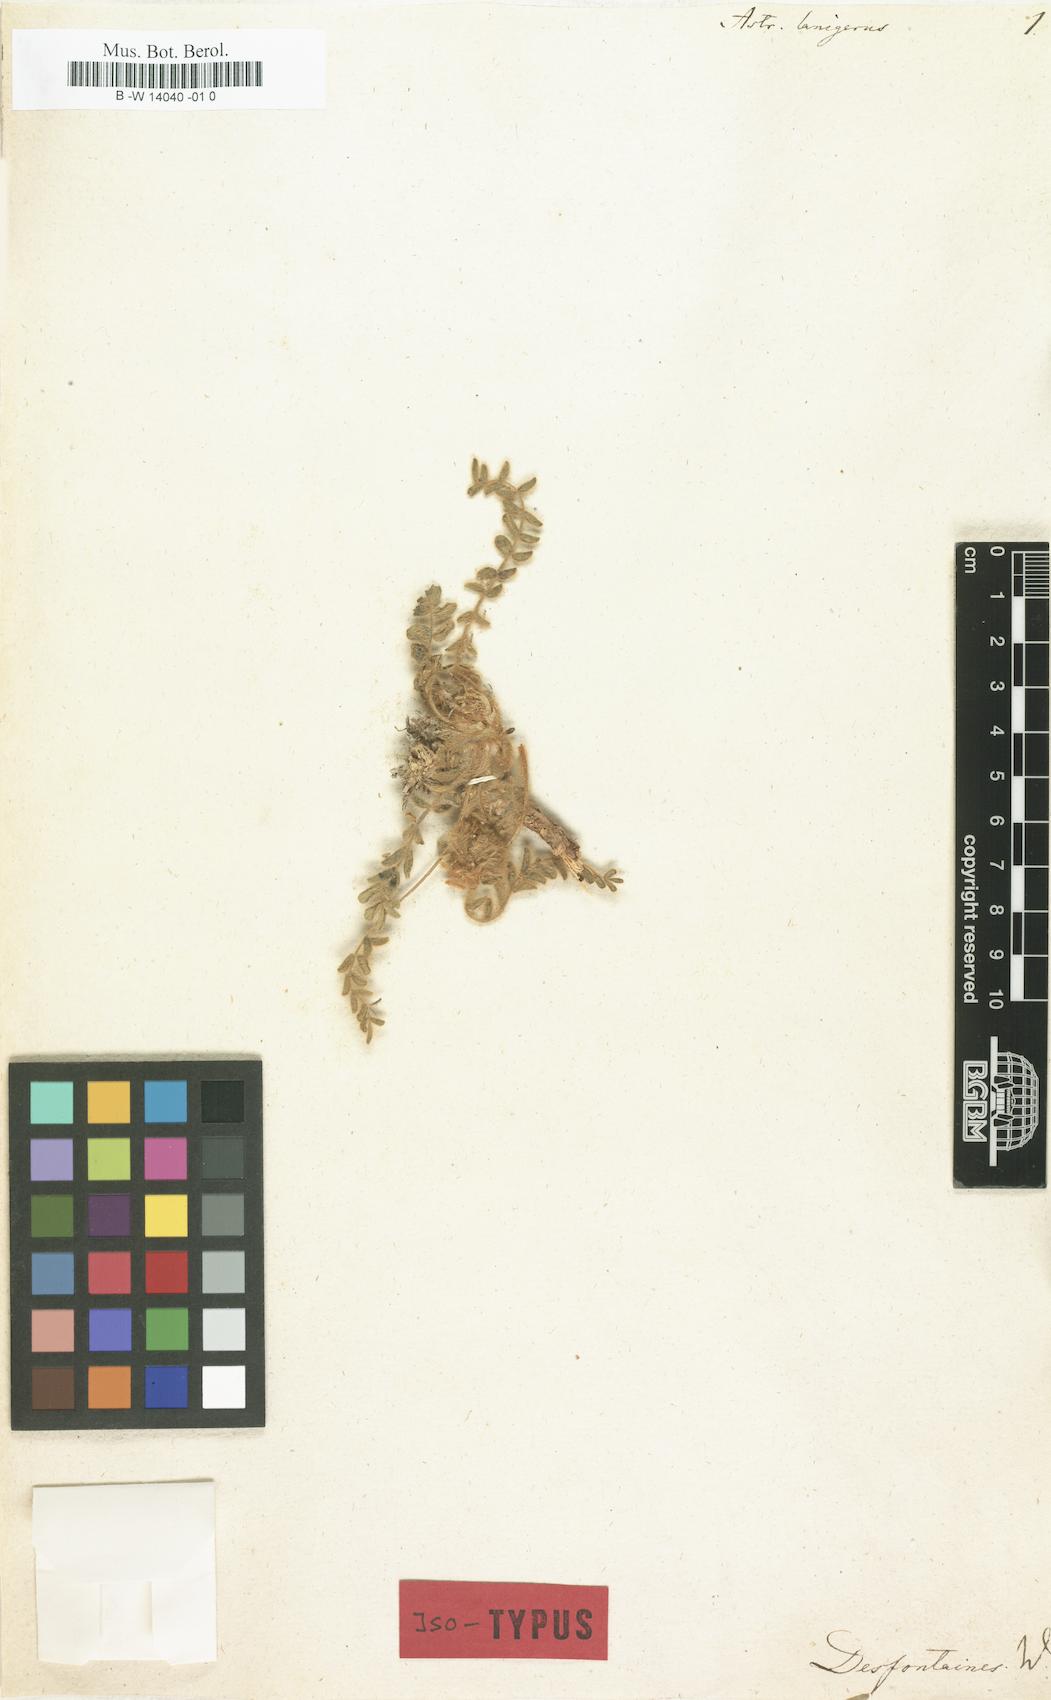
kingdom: Plantae
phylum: Tracheophyta
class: Magnoliopsida
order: Fabales
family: Fabaceae
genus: Astragalus
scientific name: Astragalus caprinus
